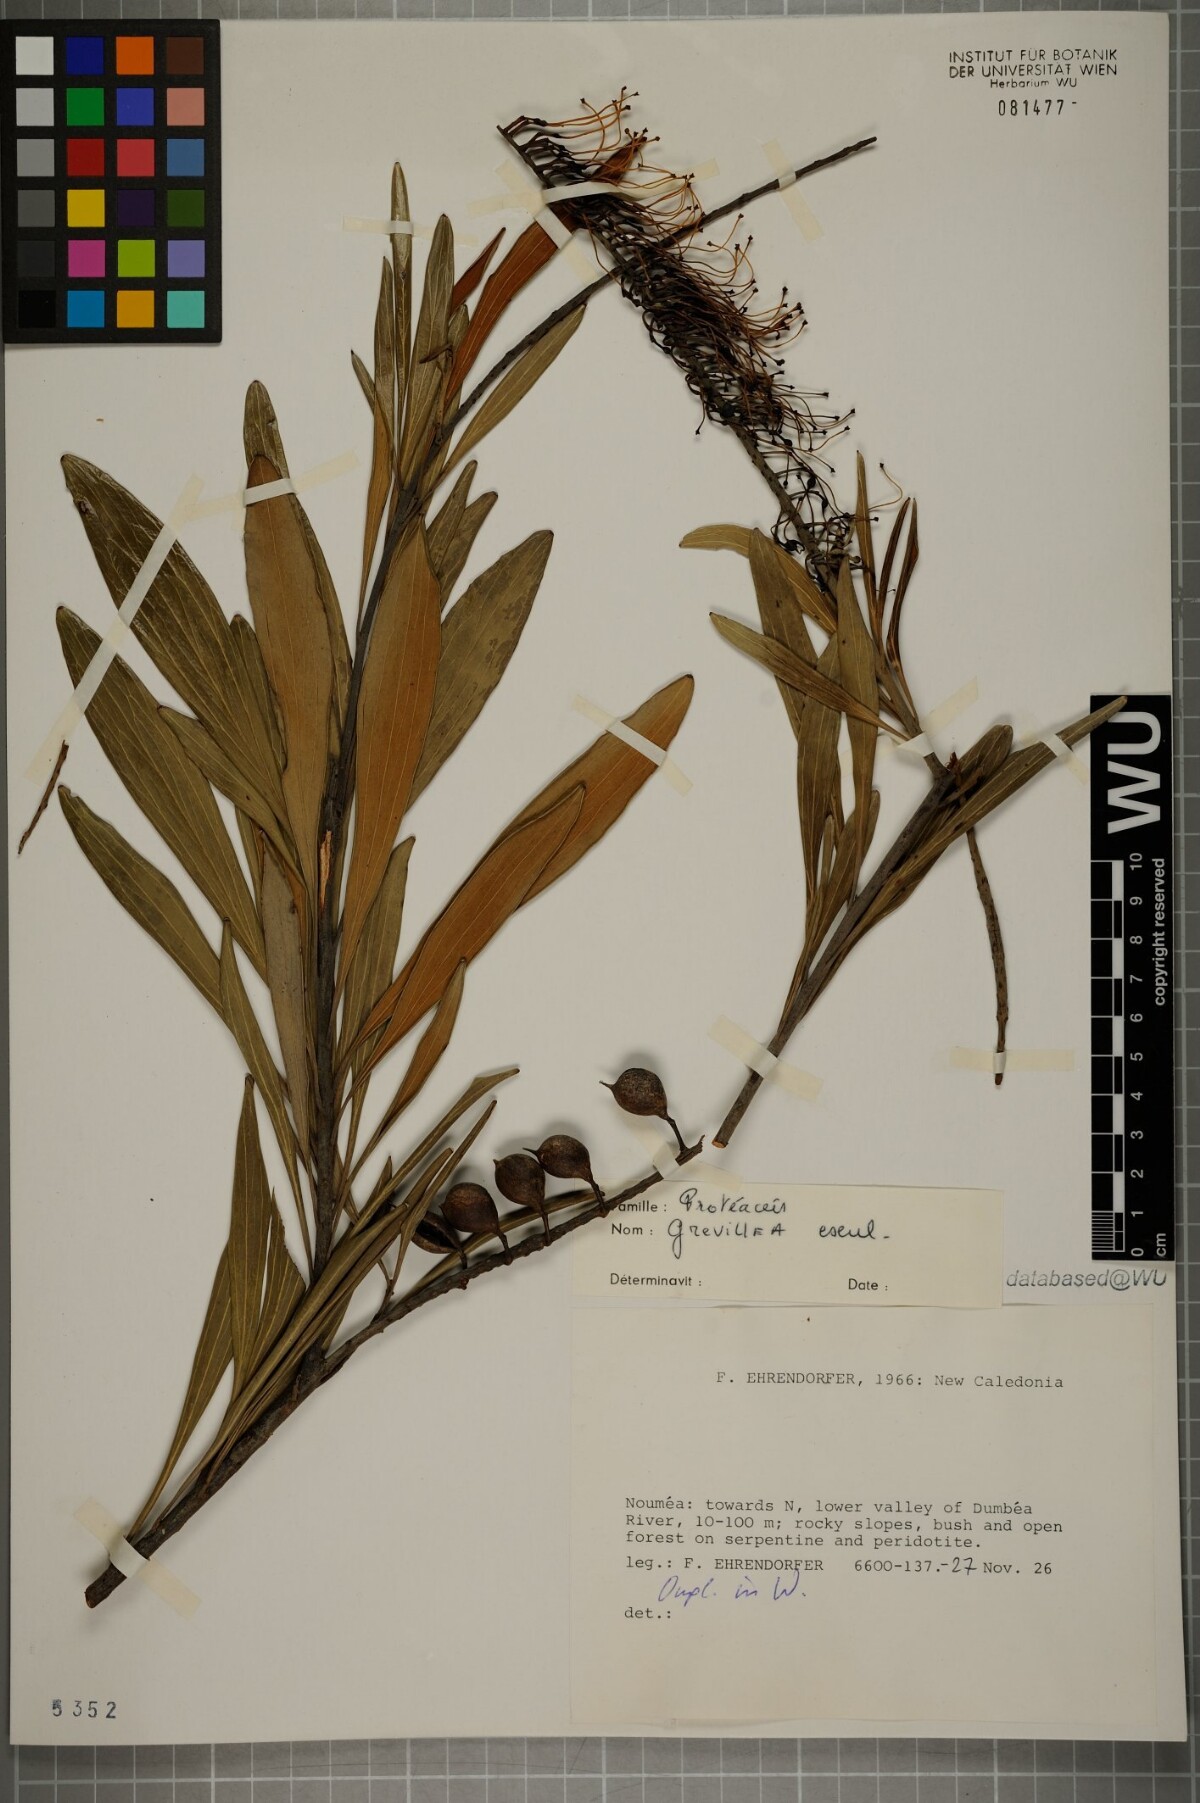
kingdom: Plantae
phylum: Tracheophyta
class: Magnoliopsida
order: Proteales
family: Proteaceae
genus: Grevillea
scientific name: Grevillea exul
